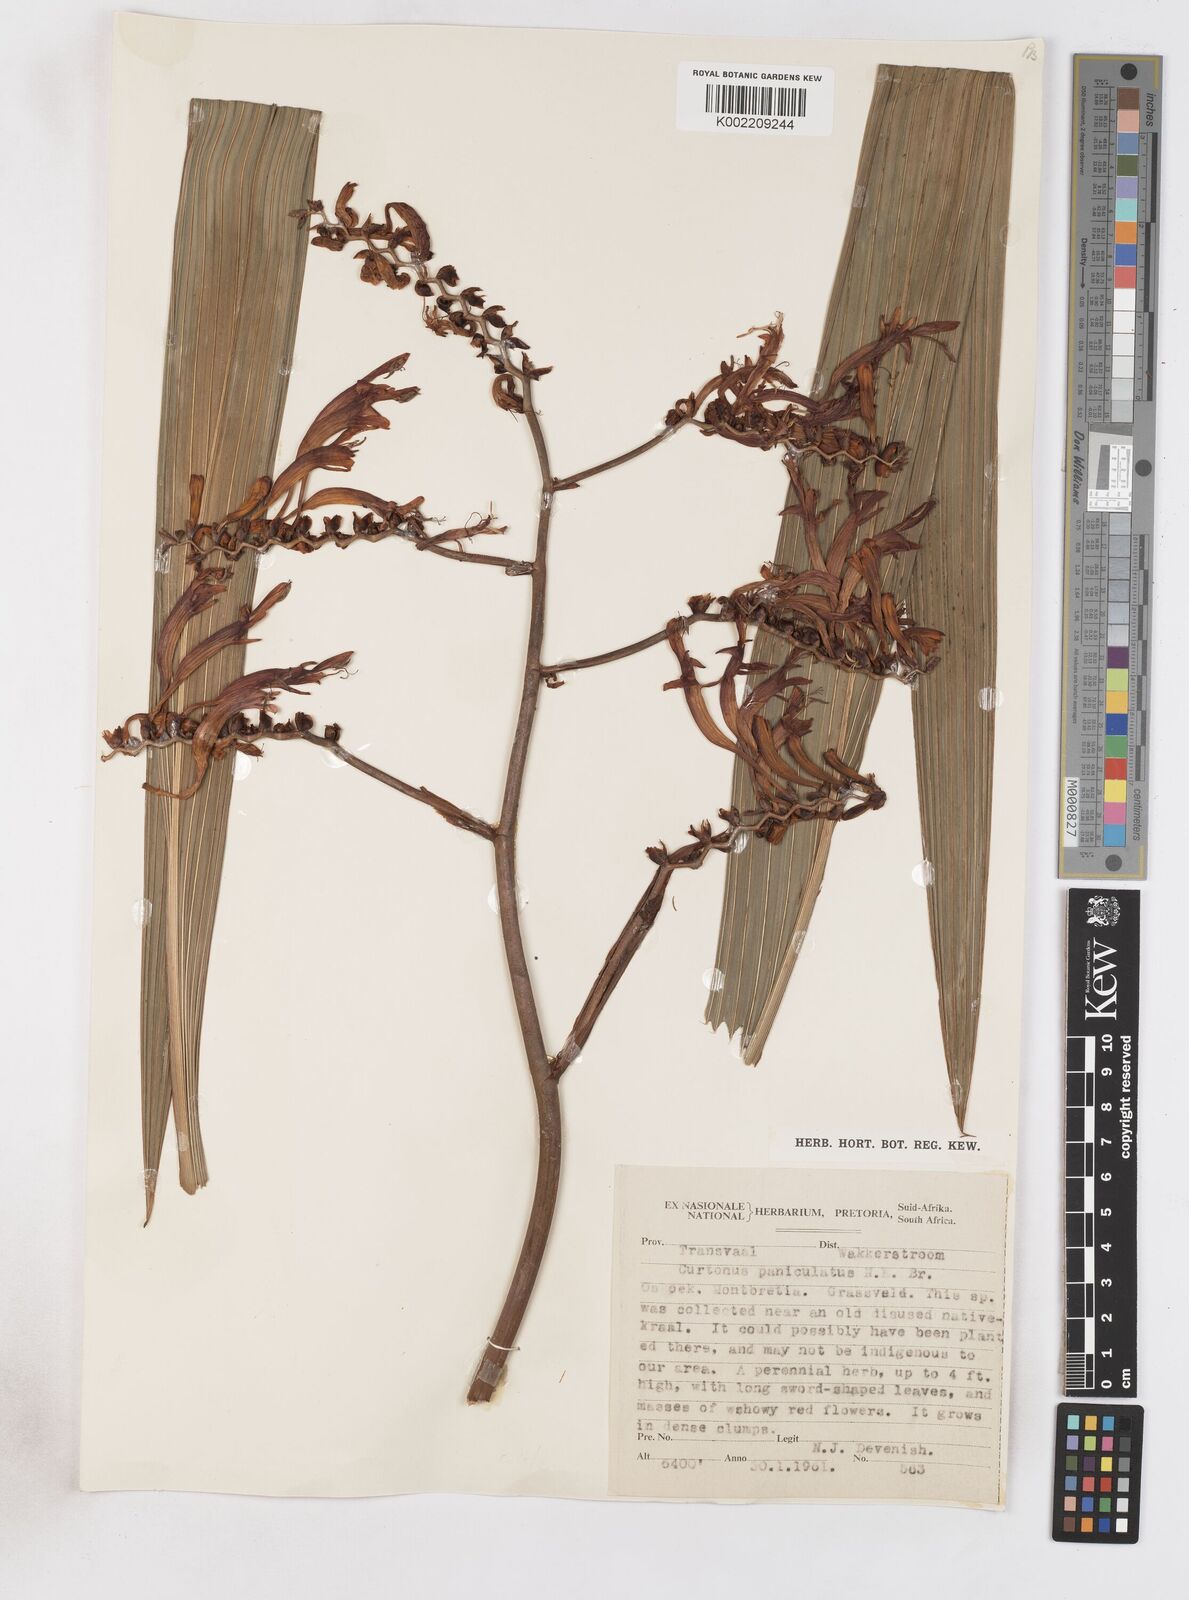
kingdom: Plantae
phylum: Tracheophyta
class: Liliopsida
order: Asparagales
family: Iridaceae
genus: Crocosmia
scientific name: Crocosmia paniculata
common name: Aunt eliza
